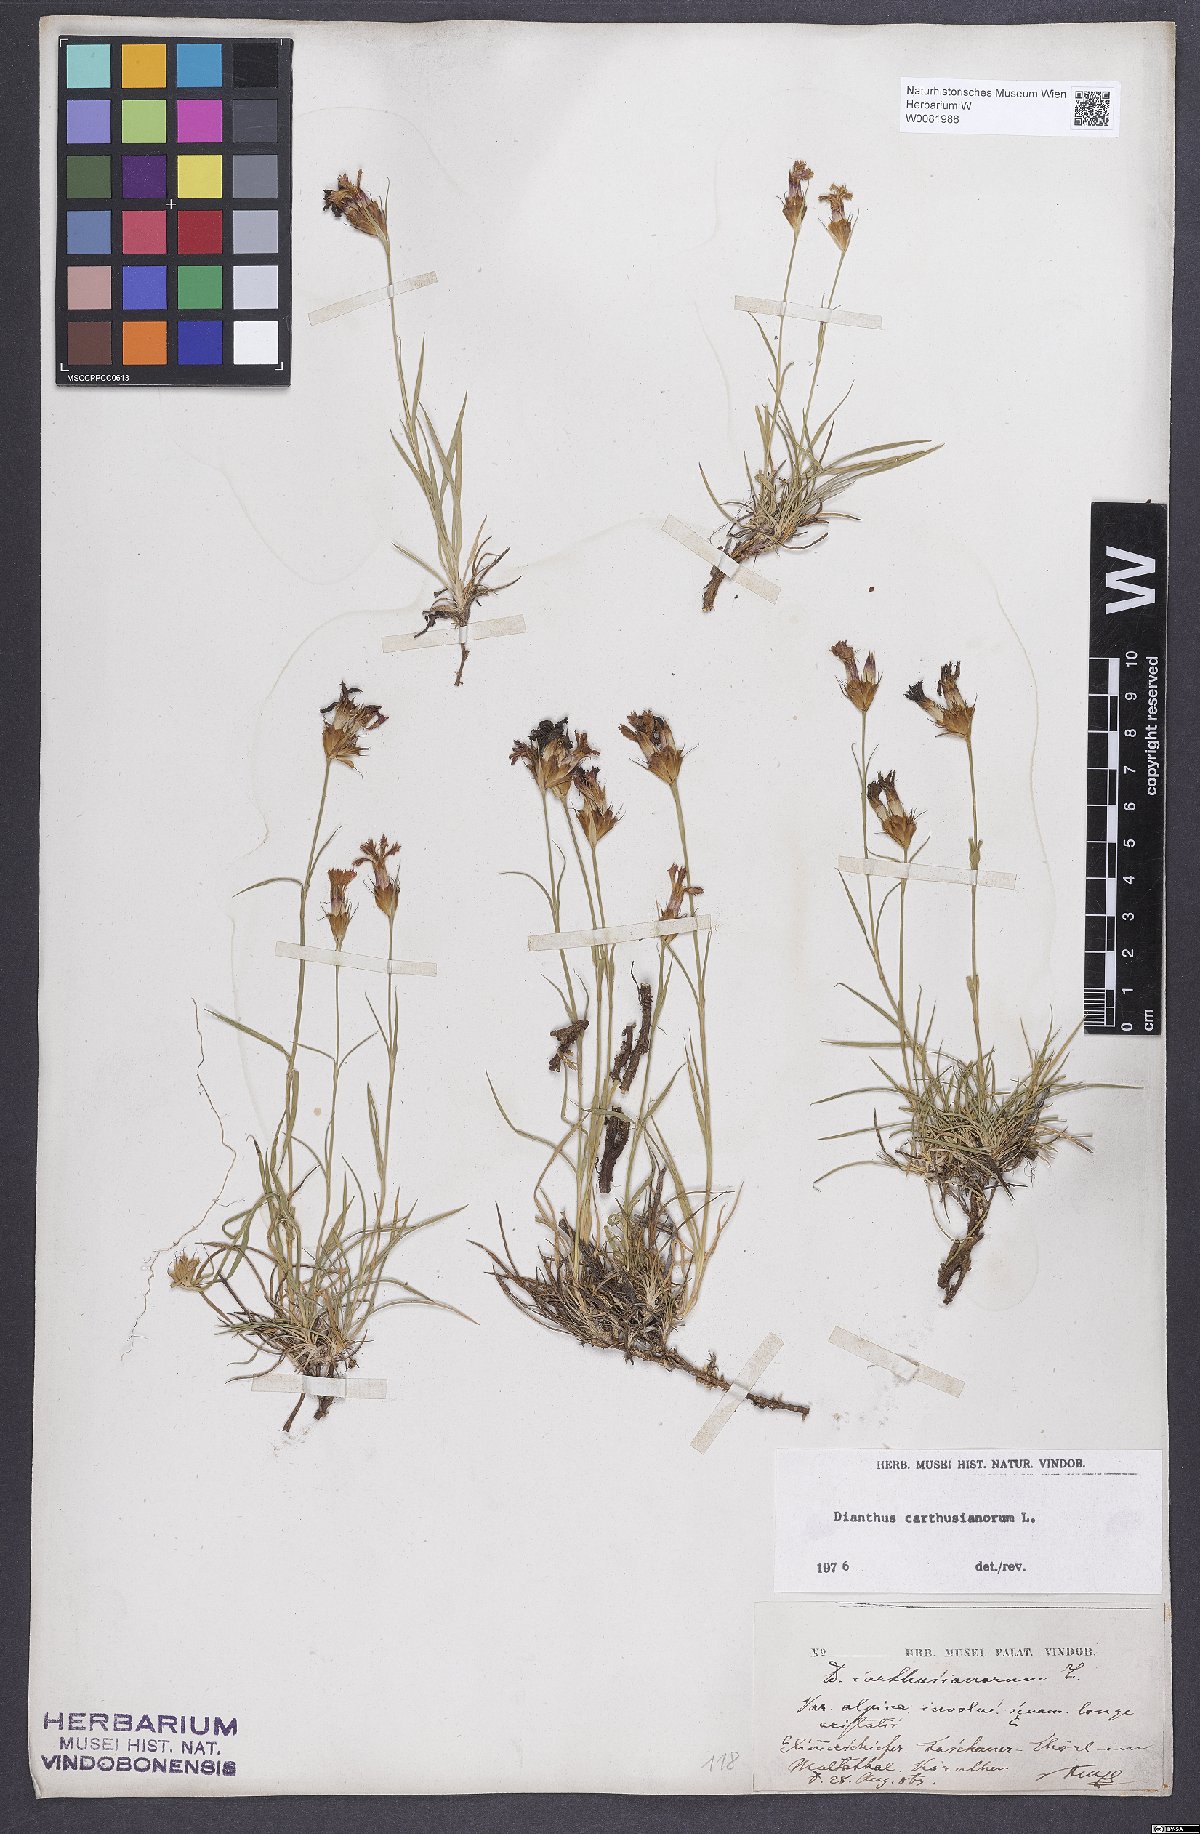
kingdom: Plantae
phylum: Tracheophyta
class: Magnoliopsida
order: Caryophyllales
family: Caryophyllaceae
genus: Dianthus
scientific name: Dianthus carthusianorum
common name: Carthusian pink
